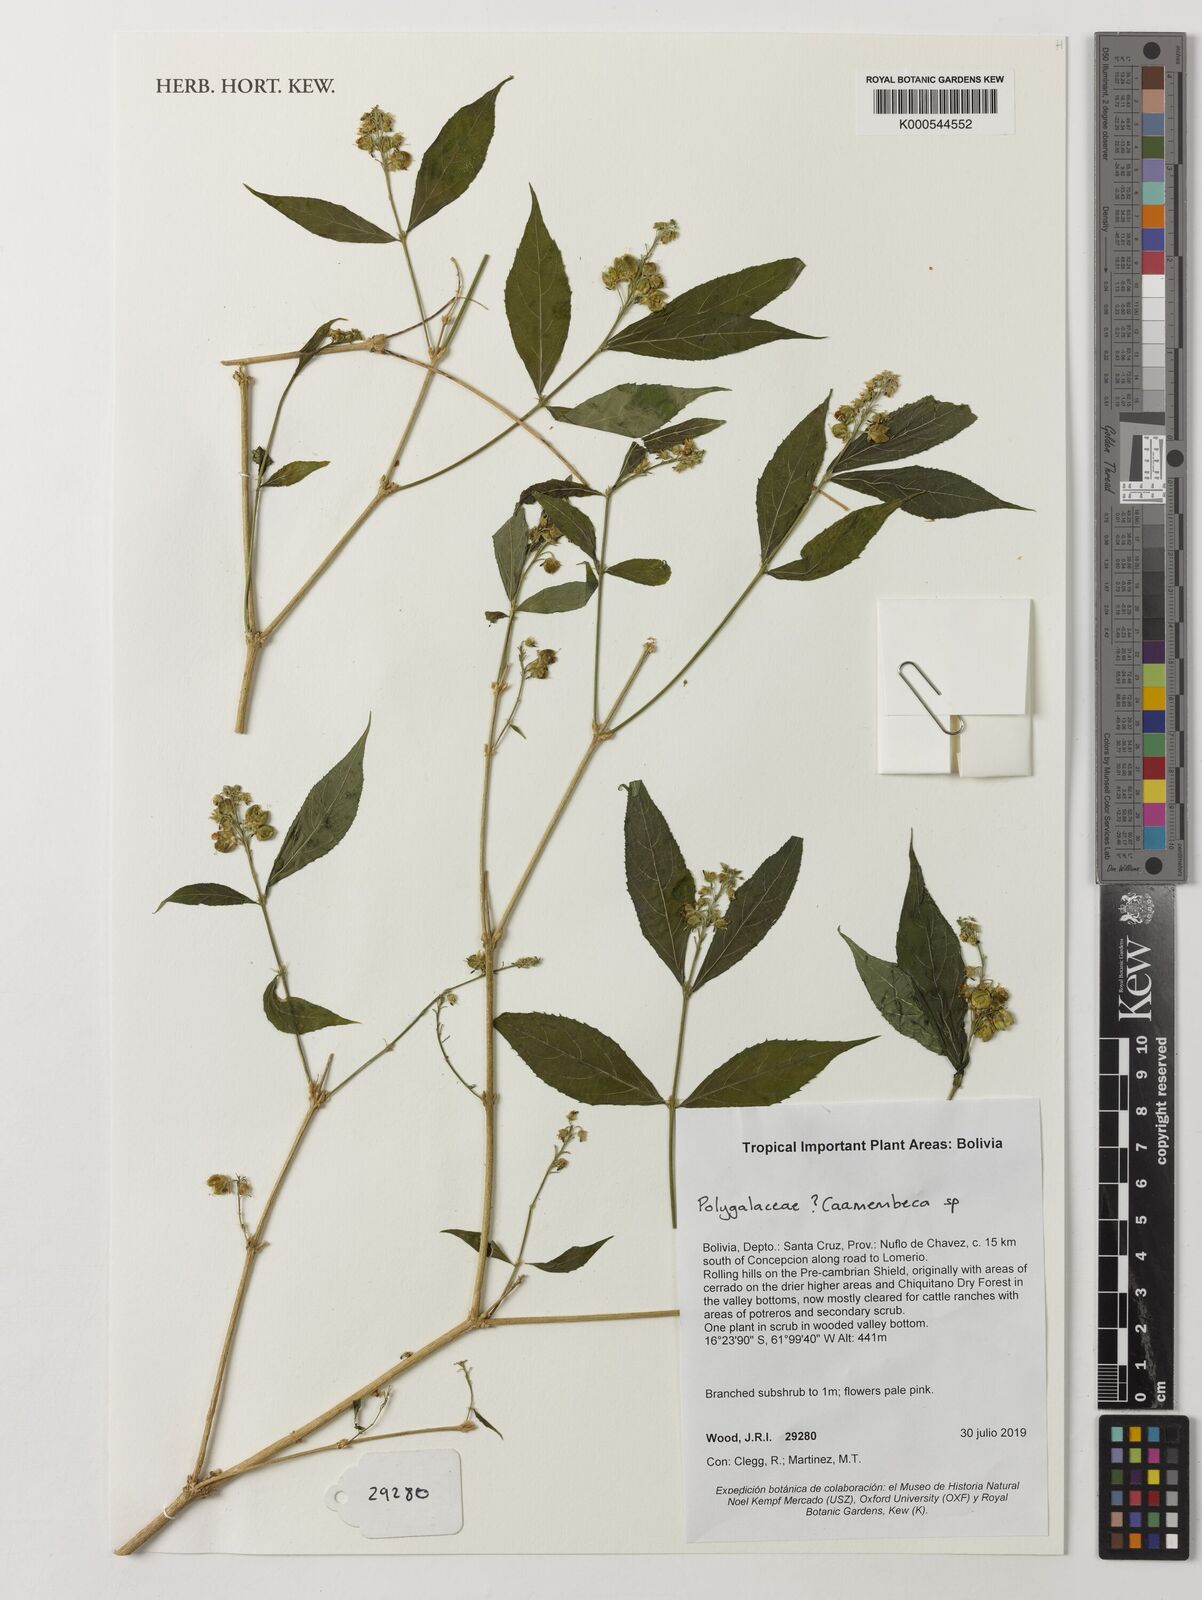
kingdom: Plantae
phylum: Tracheophyta
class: Magnoliopsida
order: Fabales
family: Polygalaceae
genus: Caamembeca
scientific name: Caamembeca
